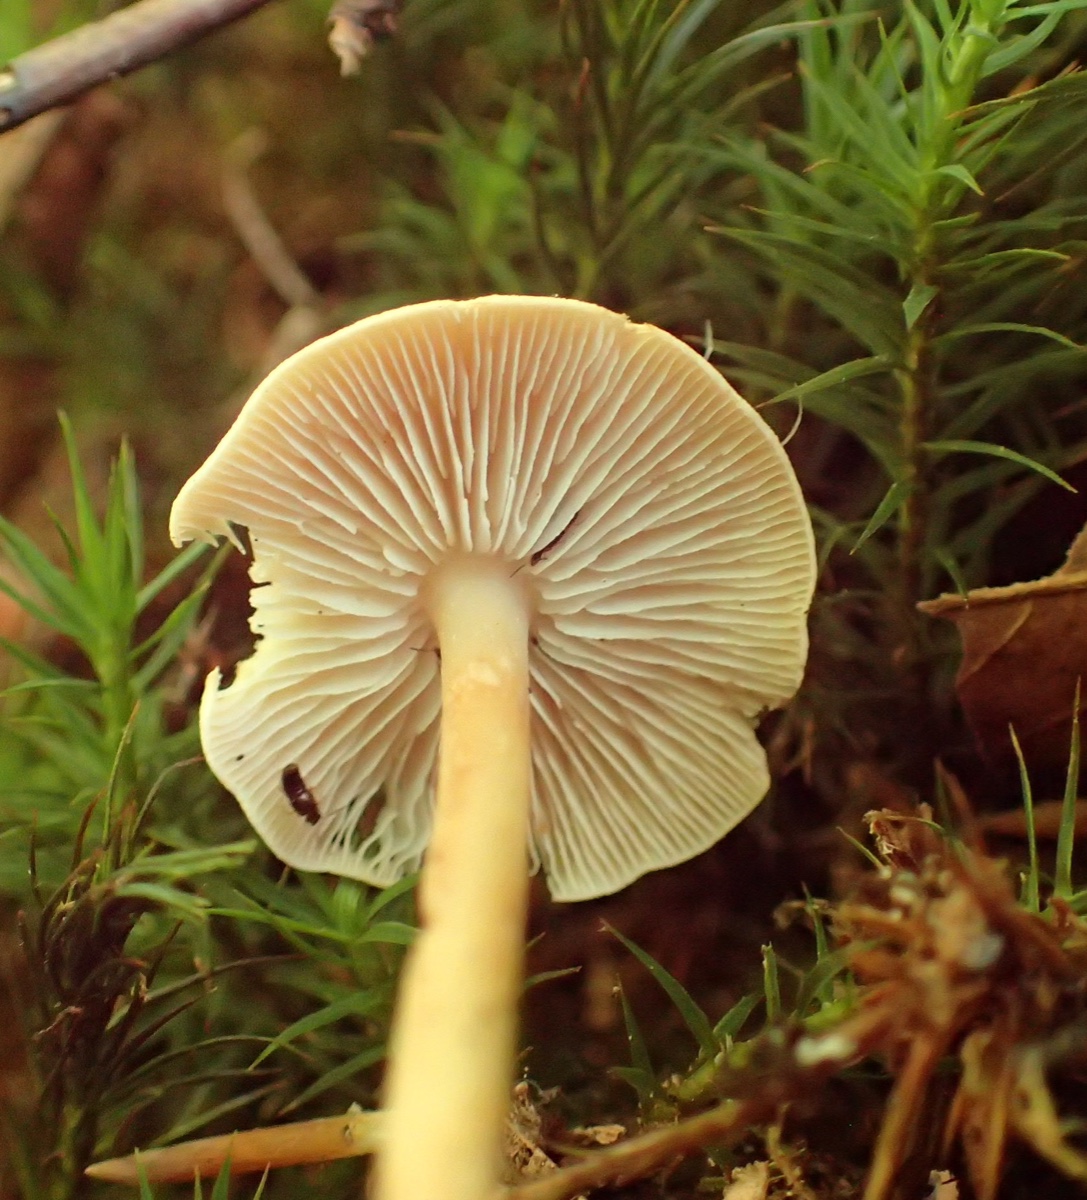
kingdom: Fungi
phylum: Basidiomycota
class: Agaricomycetes
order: Agaricales
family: Omphalotaceae
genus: Gymnopus
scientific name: Gymnopus aquosus
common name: bleg fladhat
